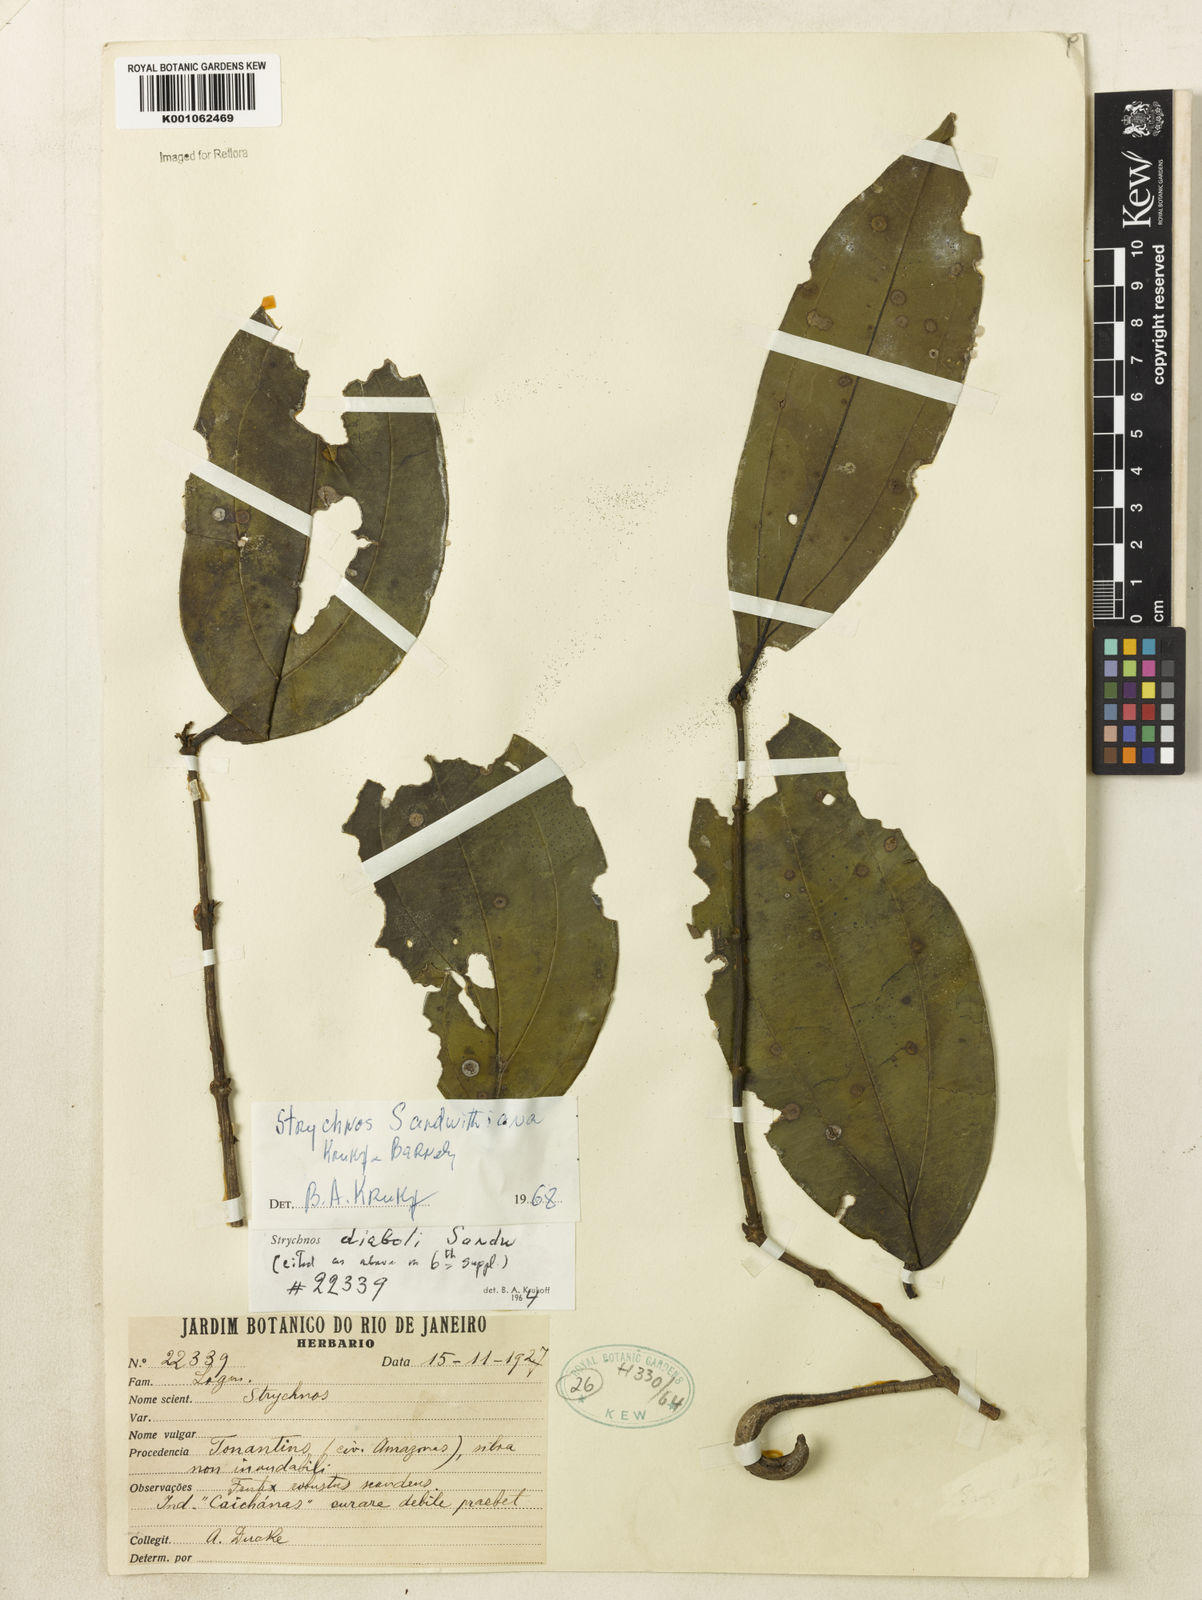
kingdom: Plantae
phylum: Tracheophyta
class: Magnoliopsida
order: Gentianales
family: Loganiaceae
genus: Strychnos
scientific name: Strychnos sandwithiana
